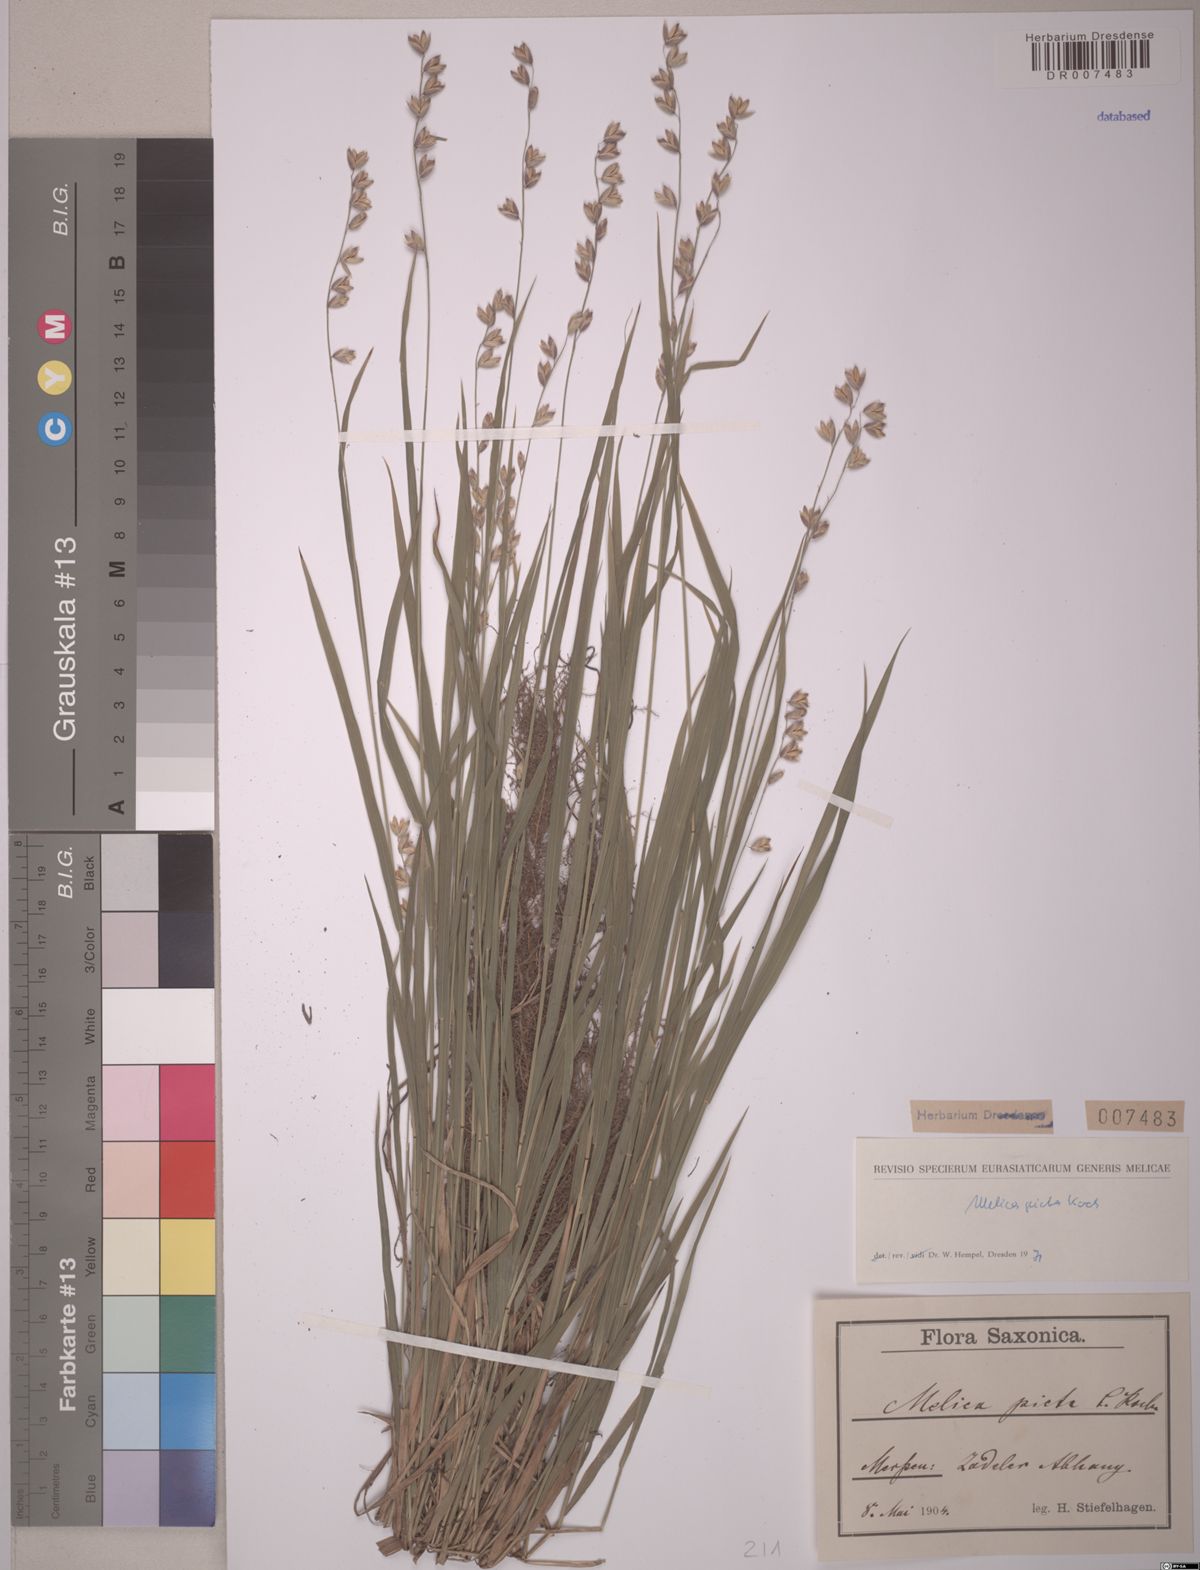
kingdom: Plantae
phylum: Tracheophyta
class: Liliopsida
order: Poales
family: Poaceae
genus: Melica
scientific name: Melica picta
